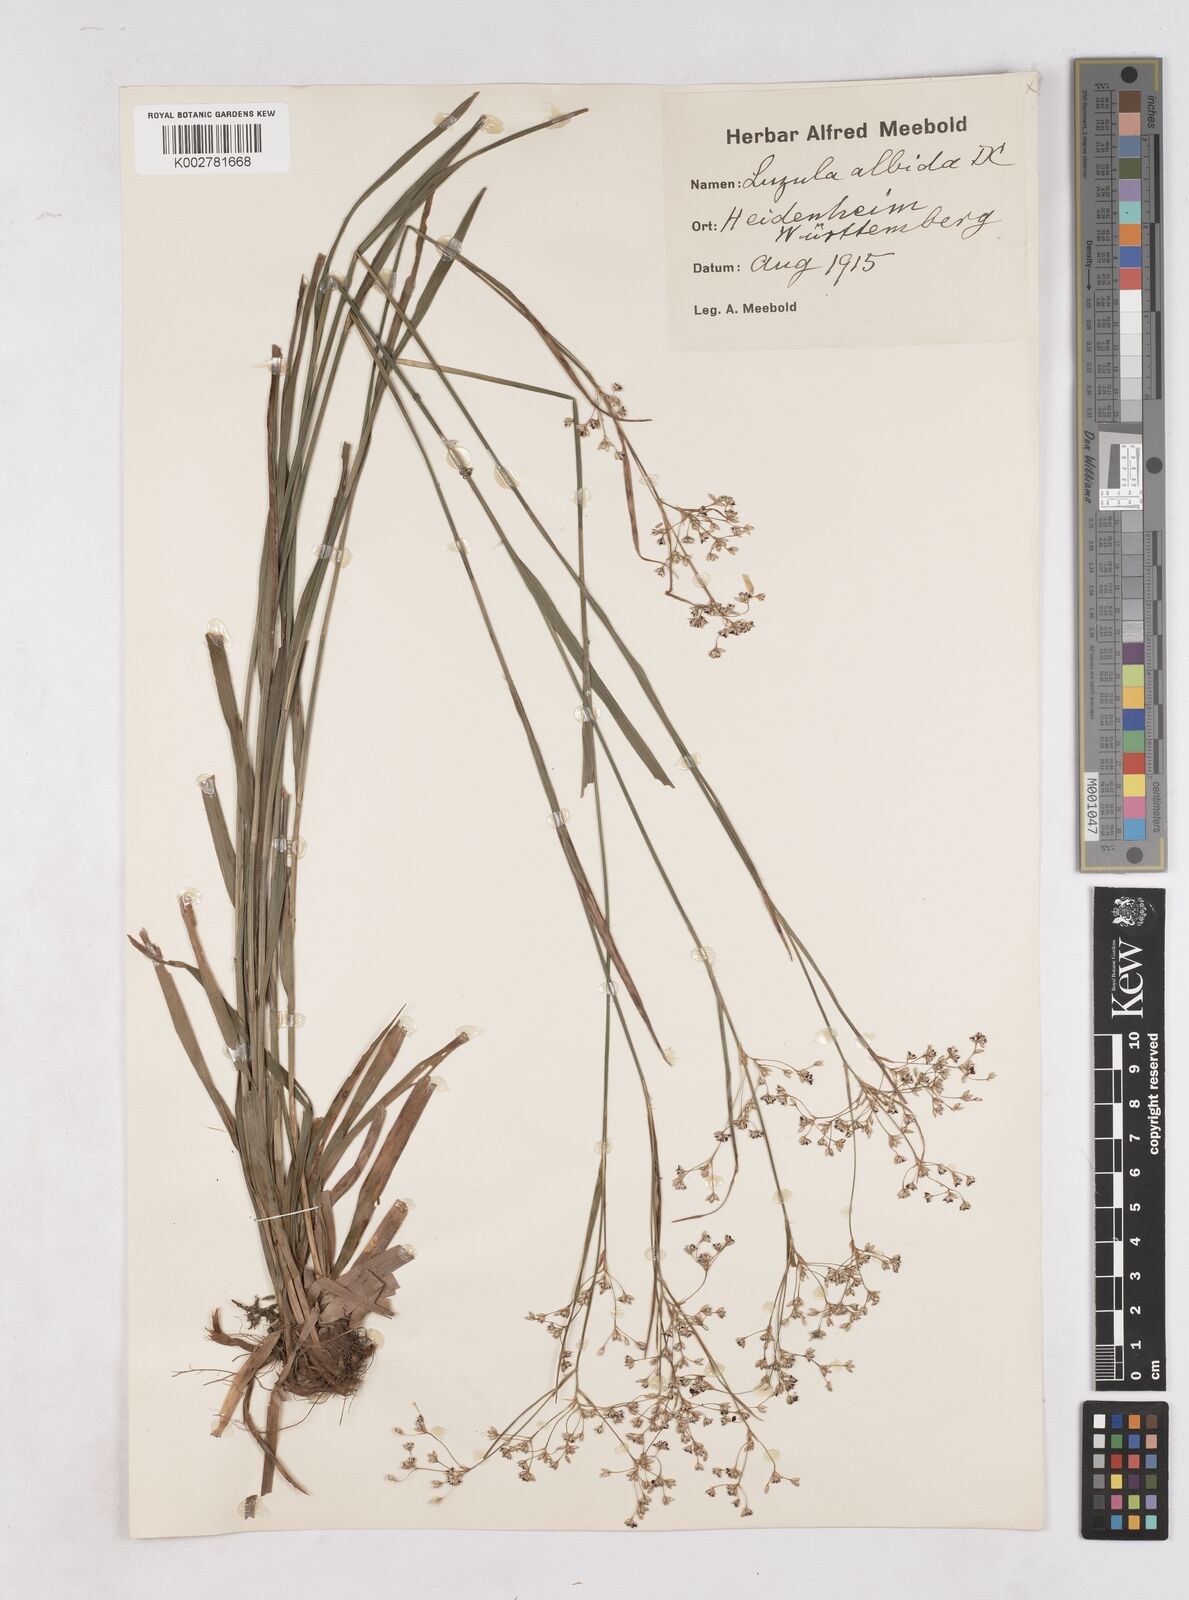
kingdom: Plantae
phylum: Tracheophyta
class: Liliopsida
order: Poales
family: Juncaceae
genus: Luzula
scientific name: Luzula luzuloides
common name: White wood-rush
